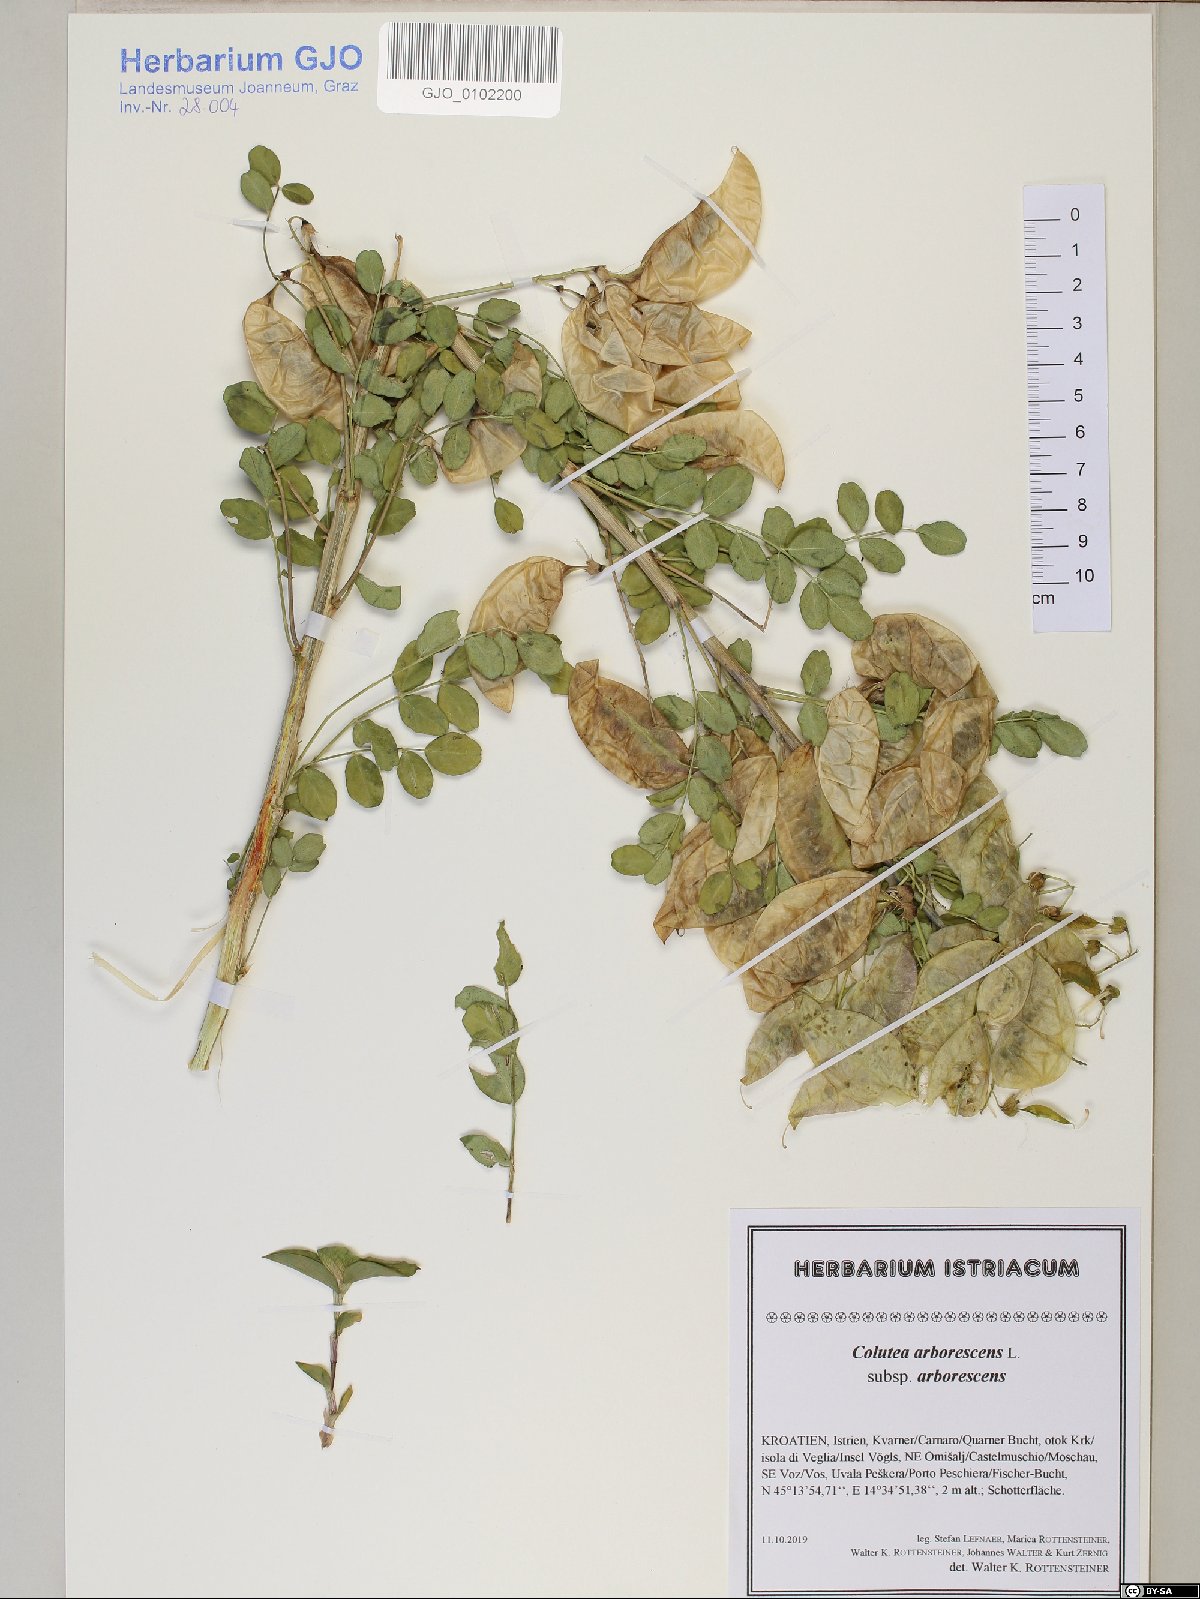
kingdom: Plantae
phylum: Tracheophyta
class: Magnoliopsida
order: Fabales
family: Fabaceae
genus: Colutea
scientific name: Colutea arborescens
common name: Bladder-senna
